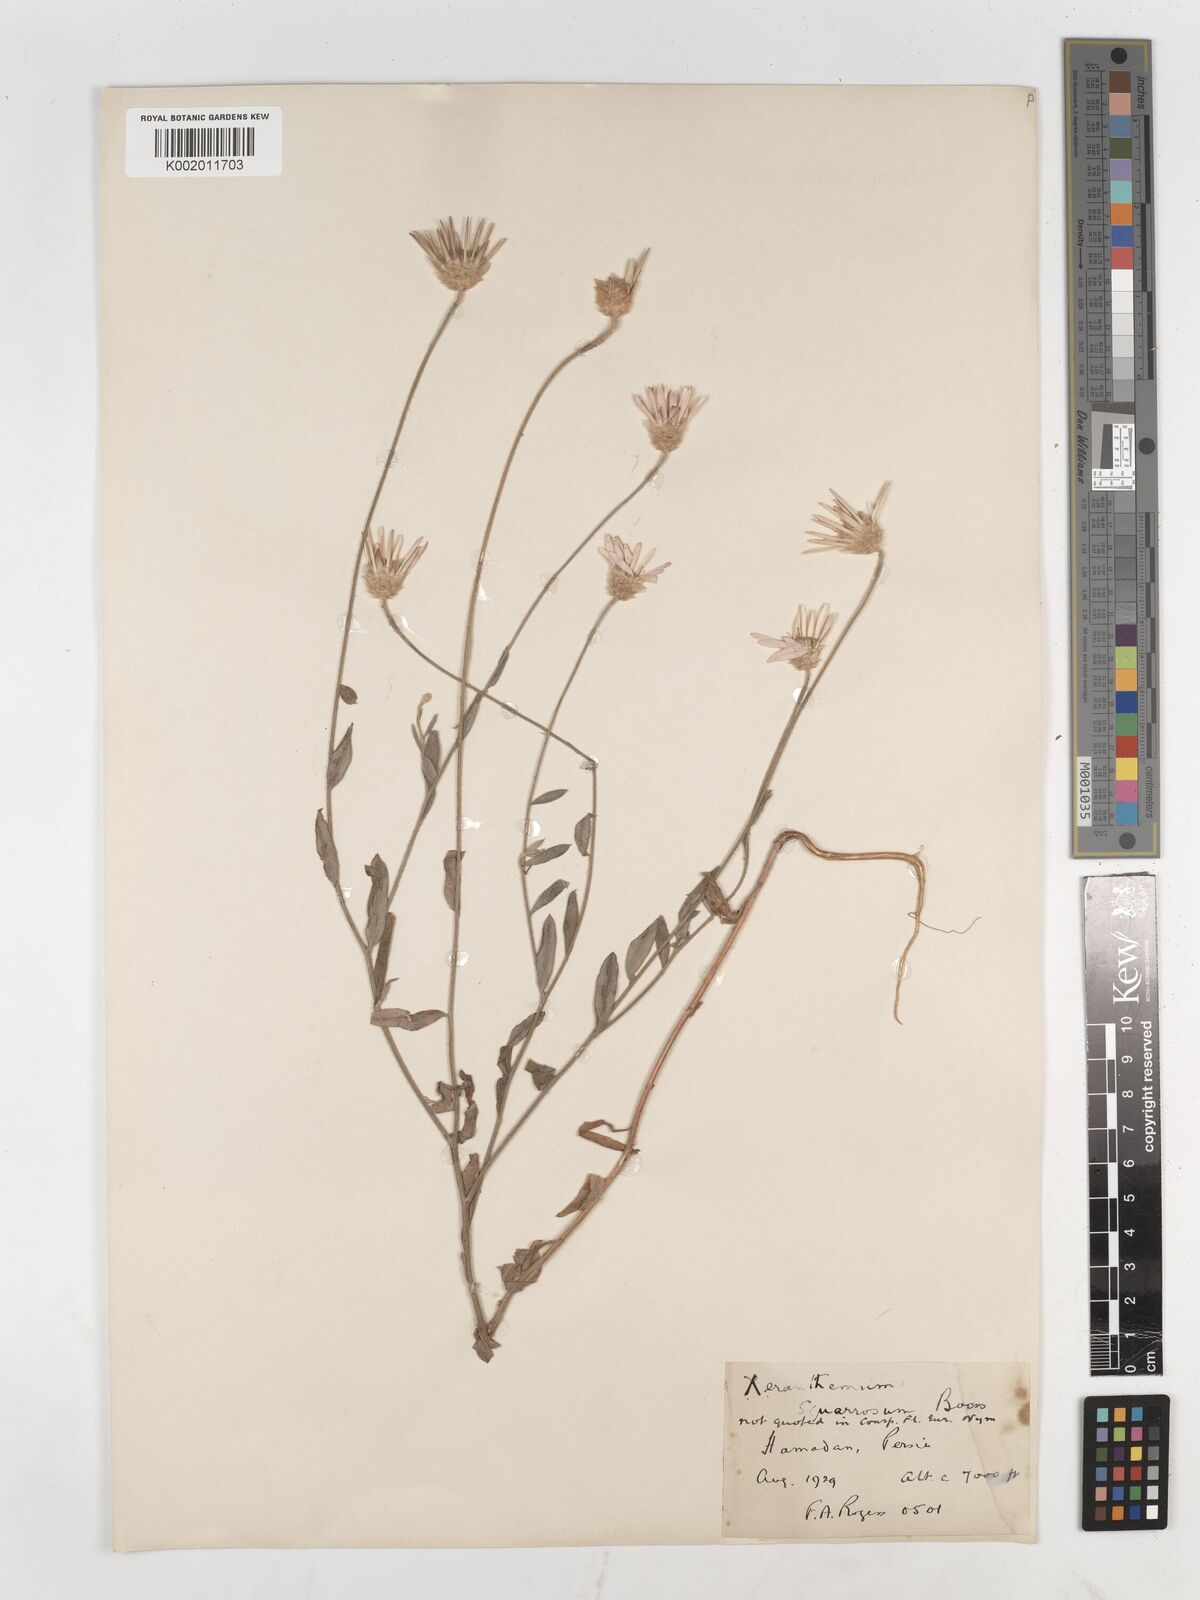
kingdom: Plantae
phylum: Tracheophyta
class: Magnoliopsida
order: Asterales
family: Asteraceae
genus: Xeranthemum
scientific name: Xeranthemum squarrosum
